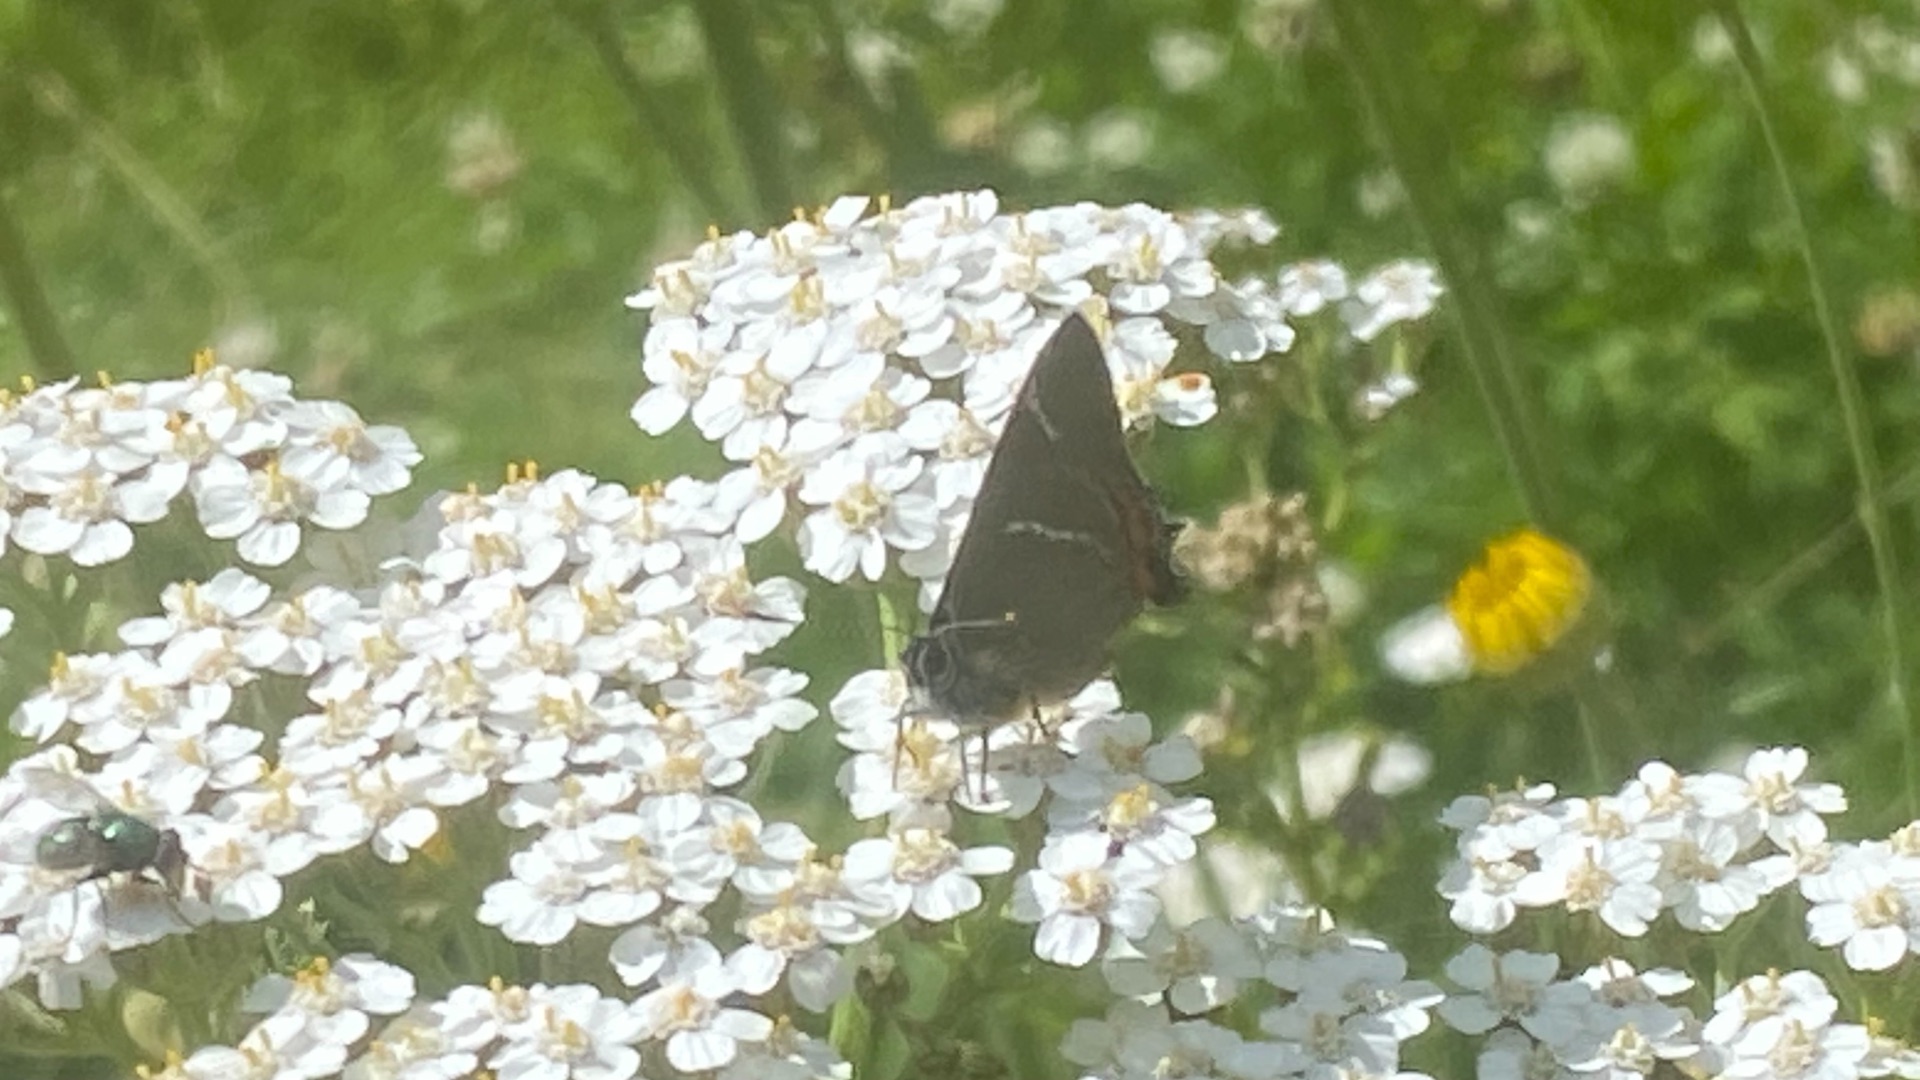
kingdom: Animalia
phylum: Arthropoda
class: Insecta
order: Lepidoptera
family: Lycaenidae
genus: Satyrium
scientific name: Satyrium w-album
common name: Det hvide W
